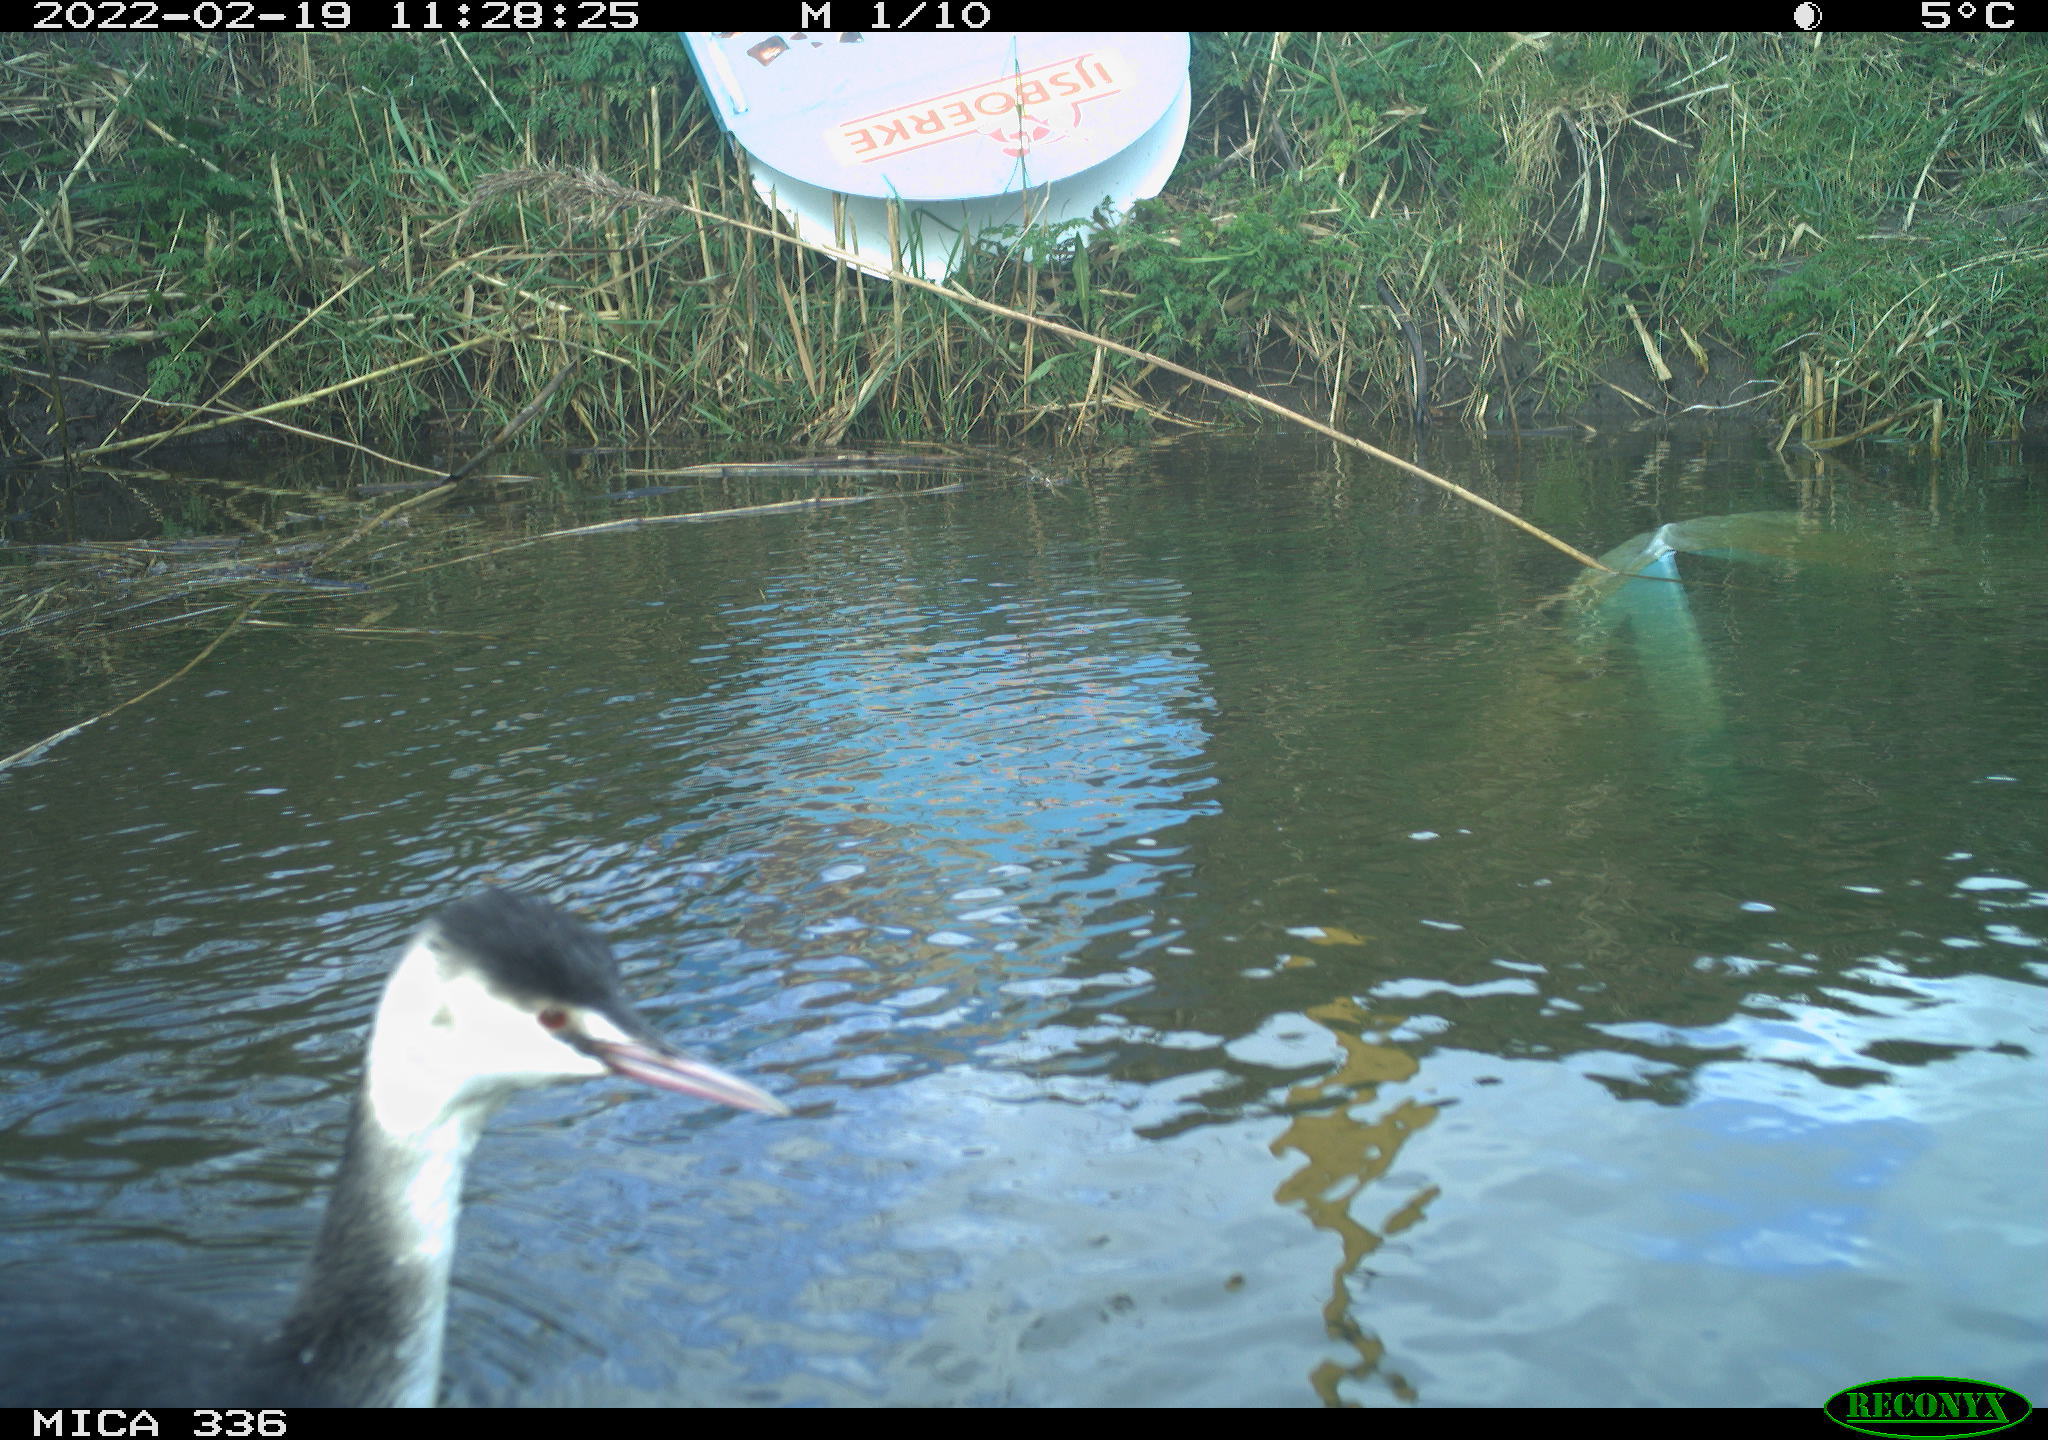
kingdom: Animalia
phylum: Chordata
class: Aves
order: Podicipediformes
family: Podicipedidae
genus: Podiceps
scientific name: Podiceps cristatus
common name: Great crested grebe
